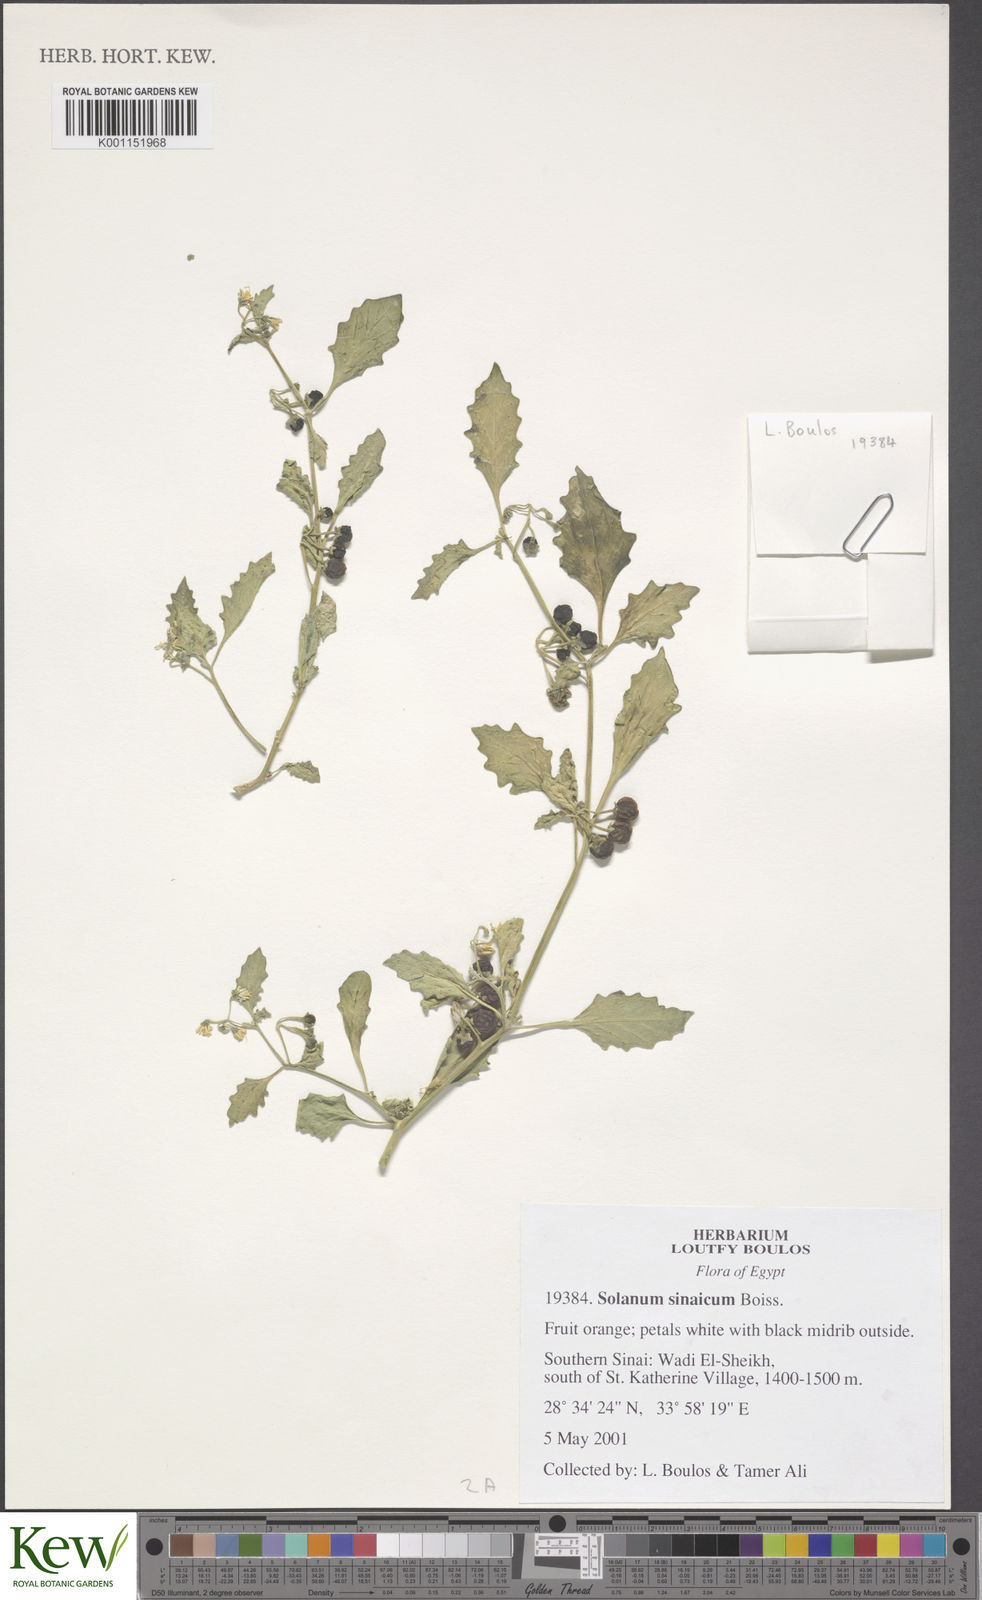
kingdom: Plantae
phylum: Tracheophyta
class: Magnoliopsida
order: Solanales
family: Solanaceae
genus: Solanum
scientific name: Solanum villosum
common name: Red nightshade
